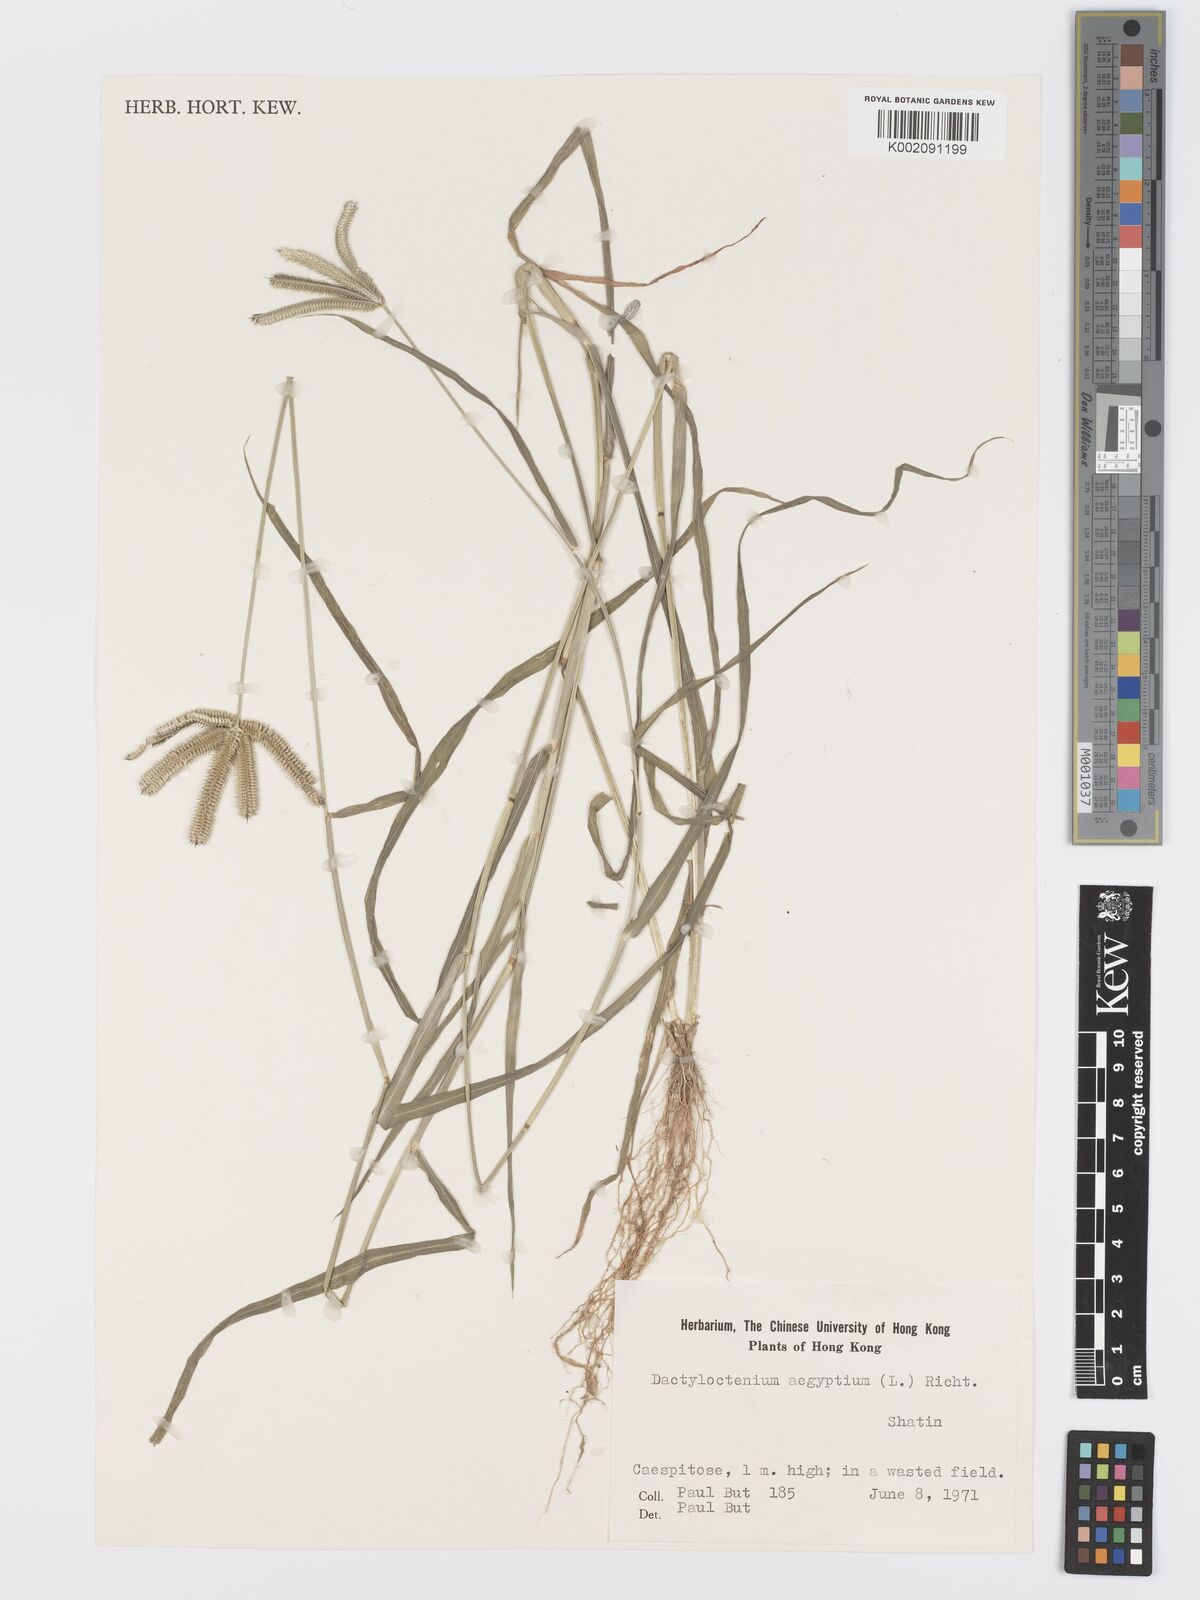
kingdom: Plantae
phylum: Tracheophyta
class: Liliopsida
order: Poales
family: Poaceae
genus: Dactyloctenium
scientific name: Dactyloctenium aegyptium
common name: Egyptian grass
